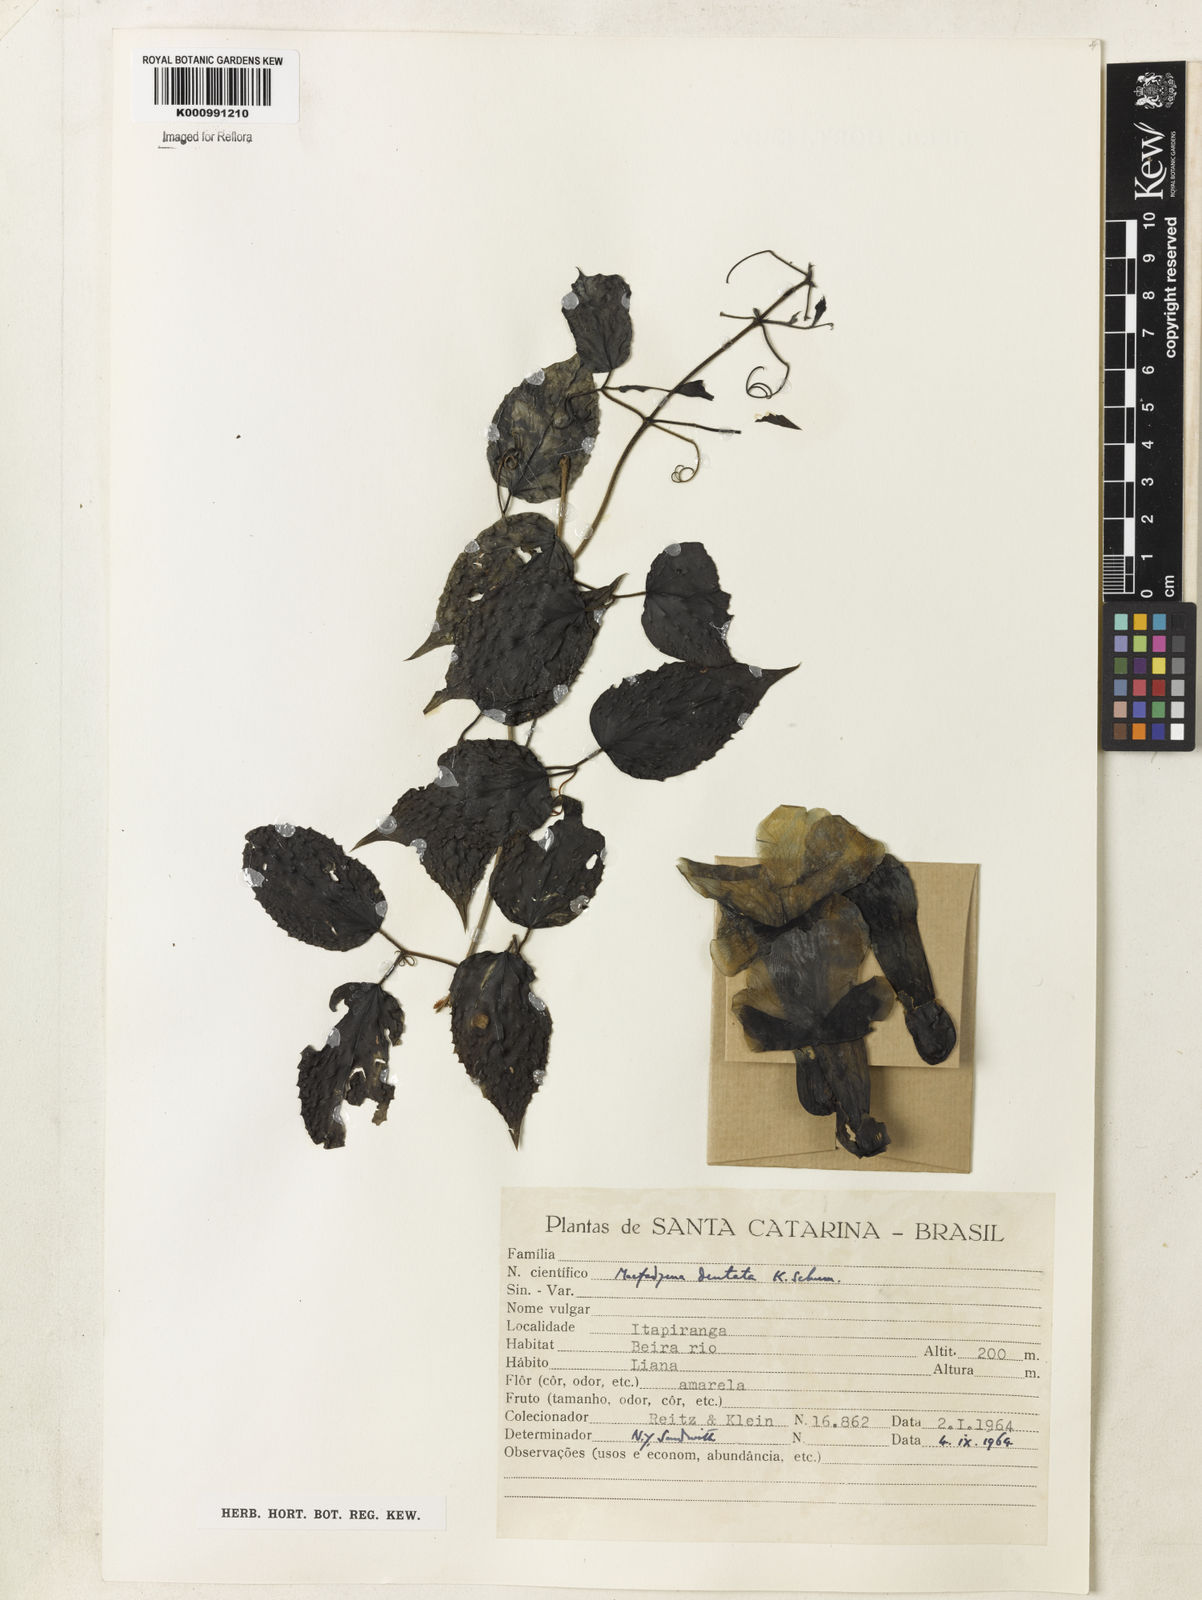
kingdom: Plantae
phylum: Tracheophyta
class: Magnoliopsida
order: Lamiales
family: Bignoniaceae
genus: Dolichandra
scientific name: Dolichandra dentata
